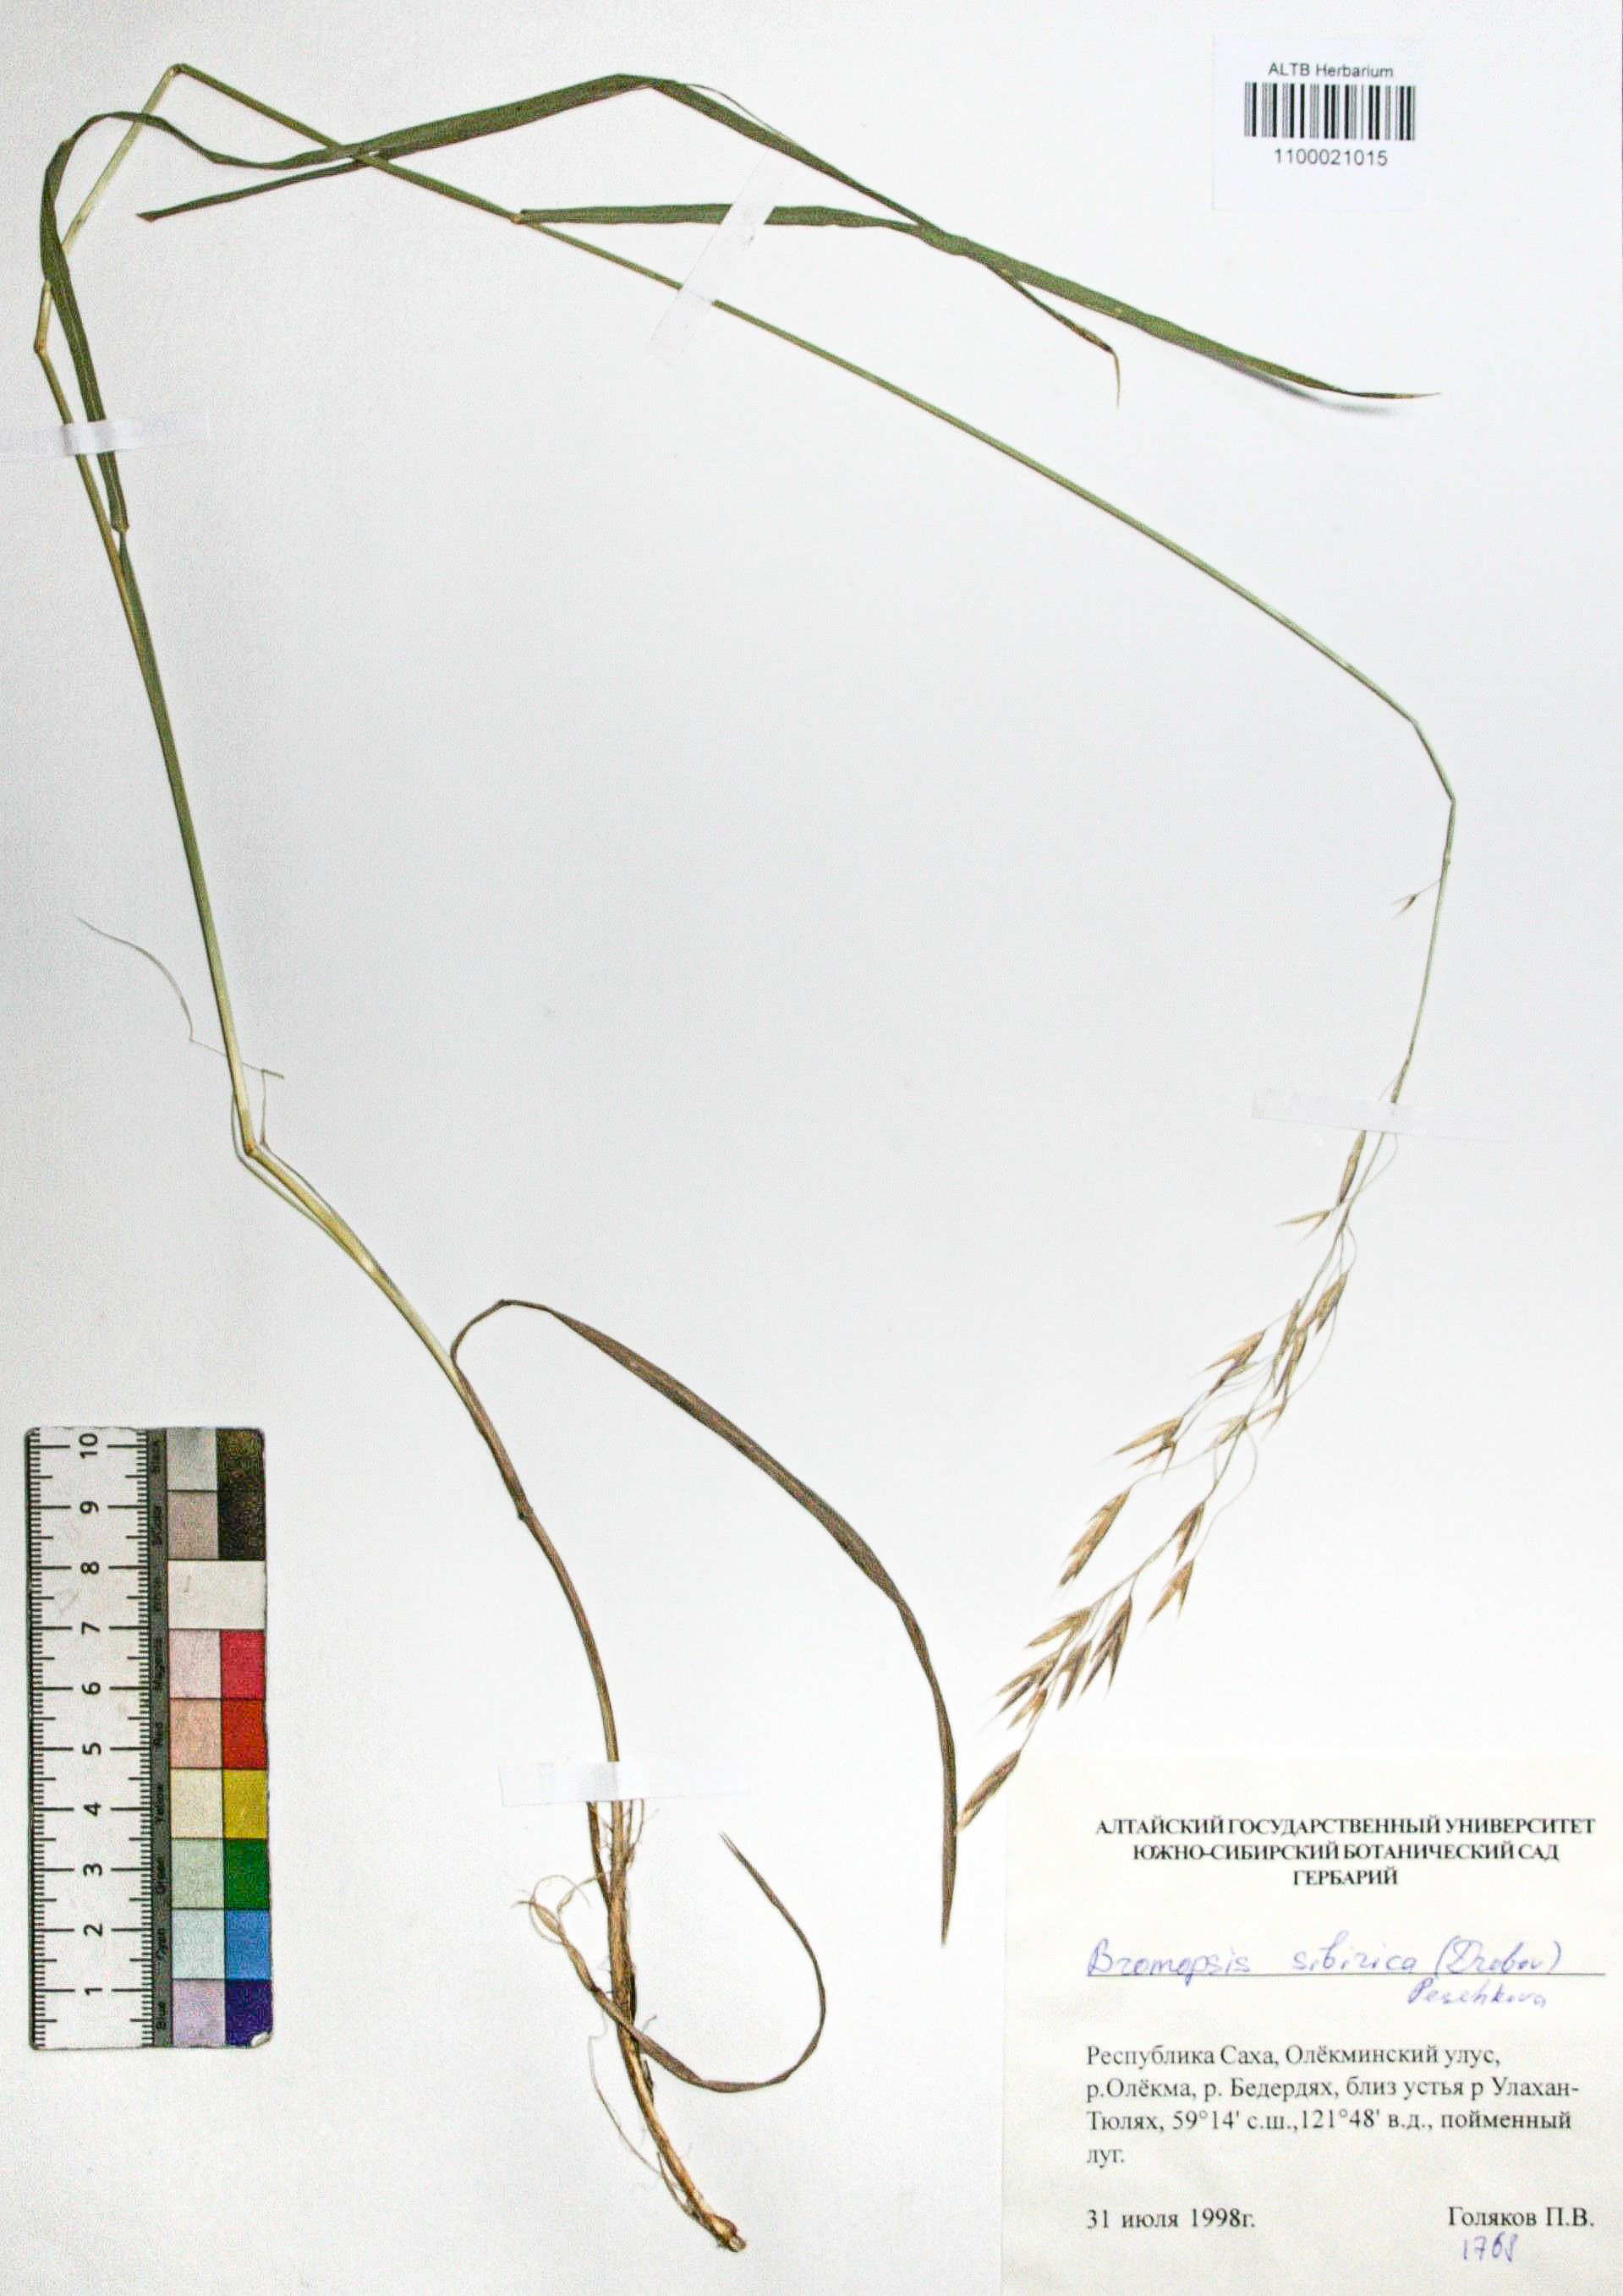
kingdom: Plantae
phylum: Tracheophyta
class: Liliopsida
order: Poales
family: Poaceae
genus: Bromus
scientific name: Bromus pumpellianus
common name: Pumpelly's brome
